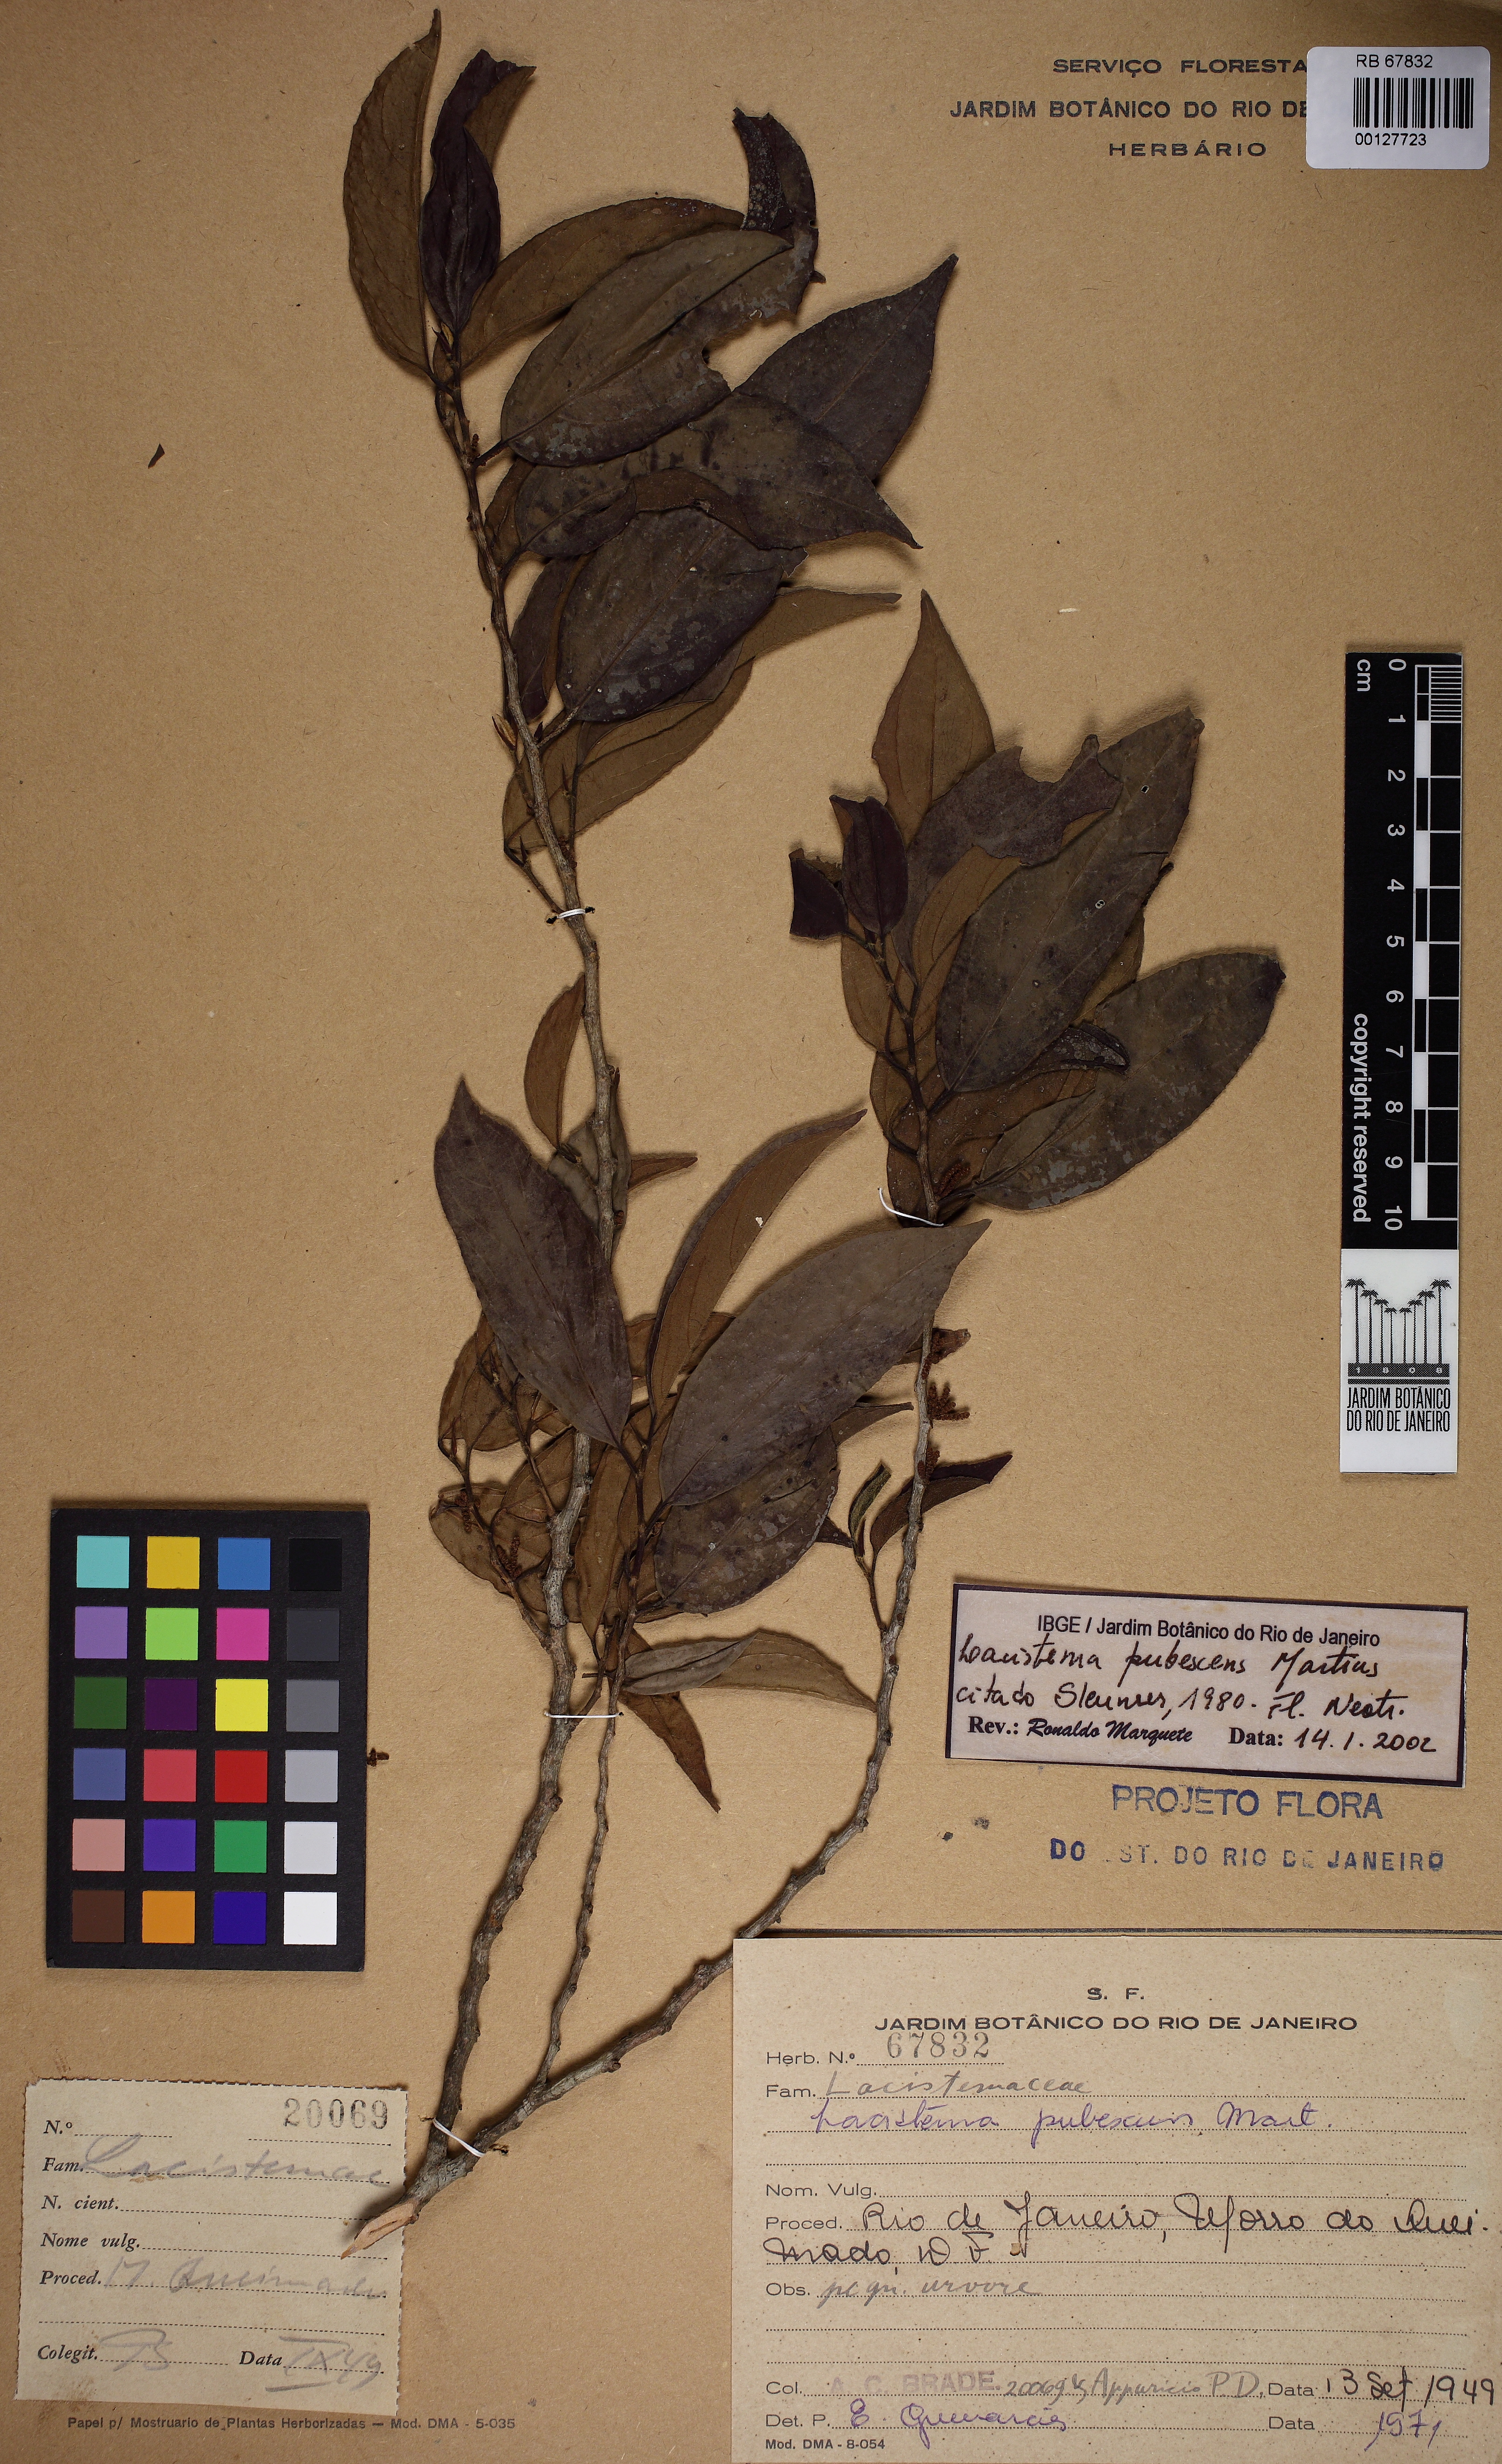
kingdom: Plantae
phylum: Tracheophyta
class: Magnoliopsida
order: Malpighiales
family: Lacistemataceae
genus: Lacistema
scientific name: Lacistema pubescens
